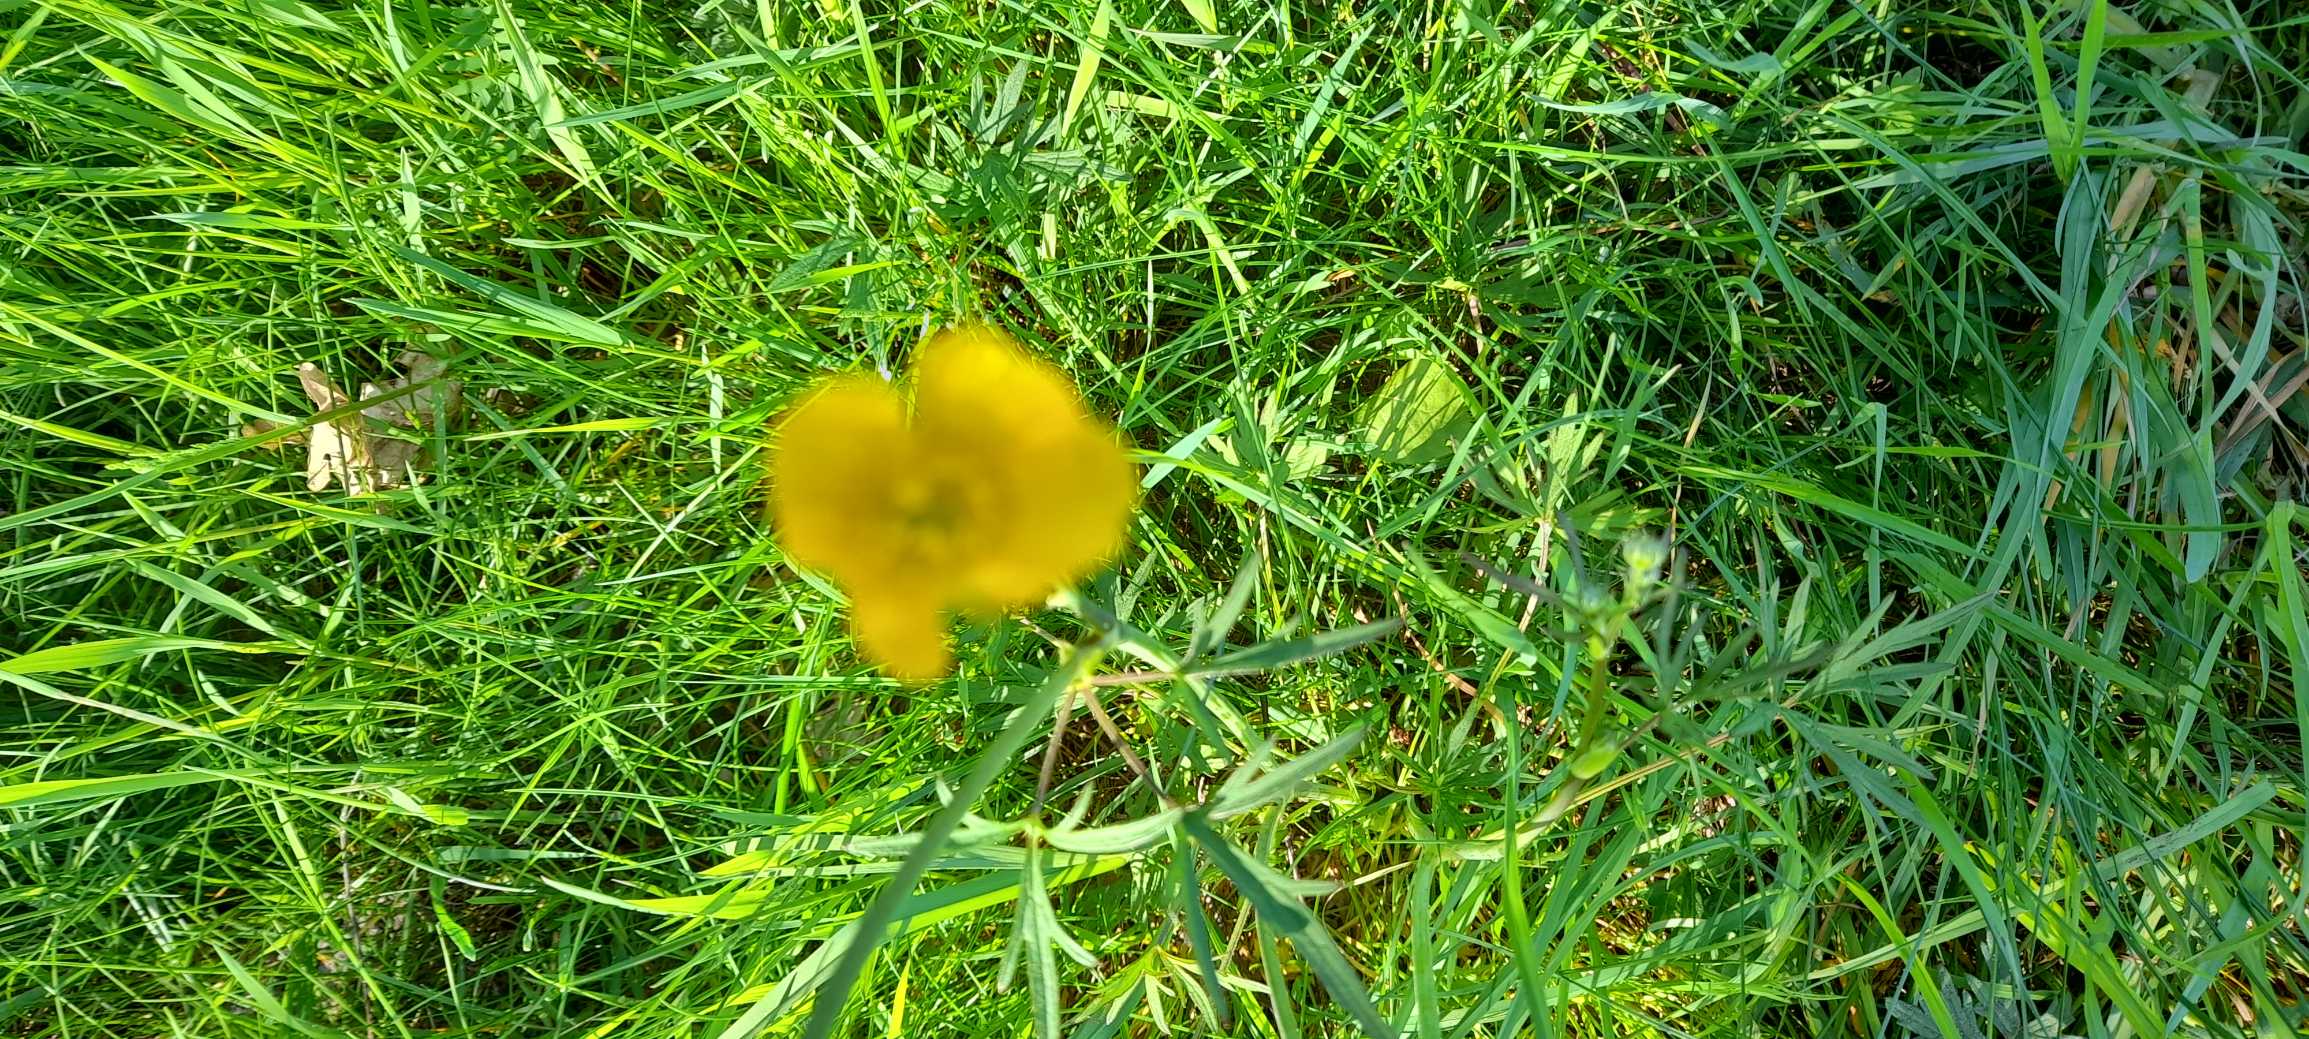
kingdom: Plantae
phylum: Tracheophyta
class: Magnoliopsida
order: Ranunculales
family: Ranunculaceae
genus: Ranunculus
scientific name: Ranunculus acris
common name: Bidende ranunkel
